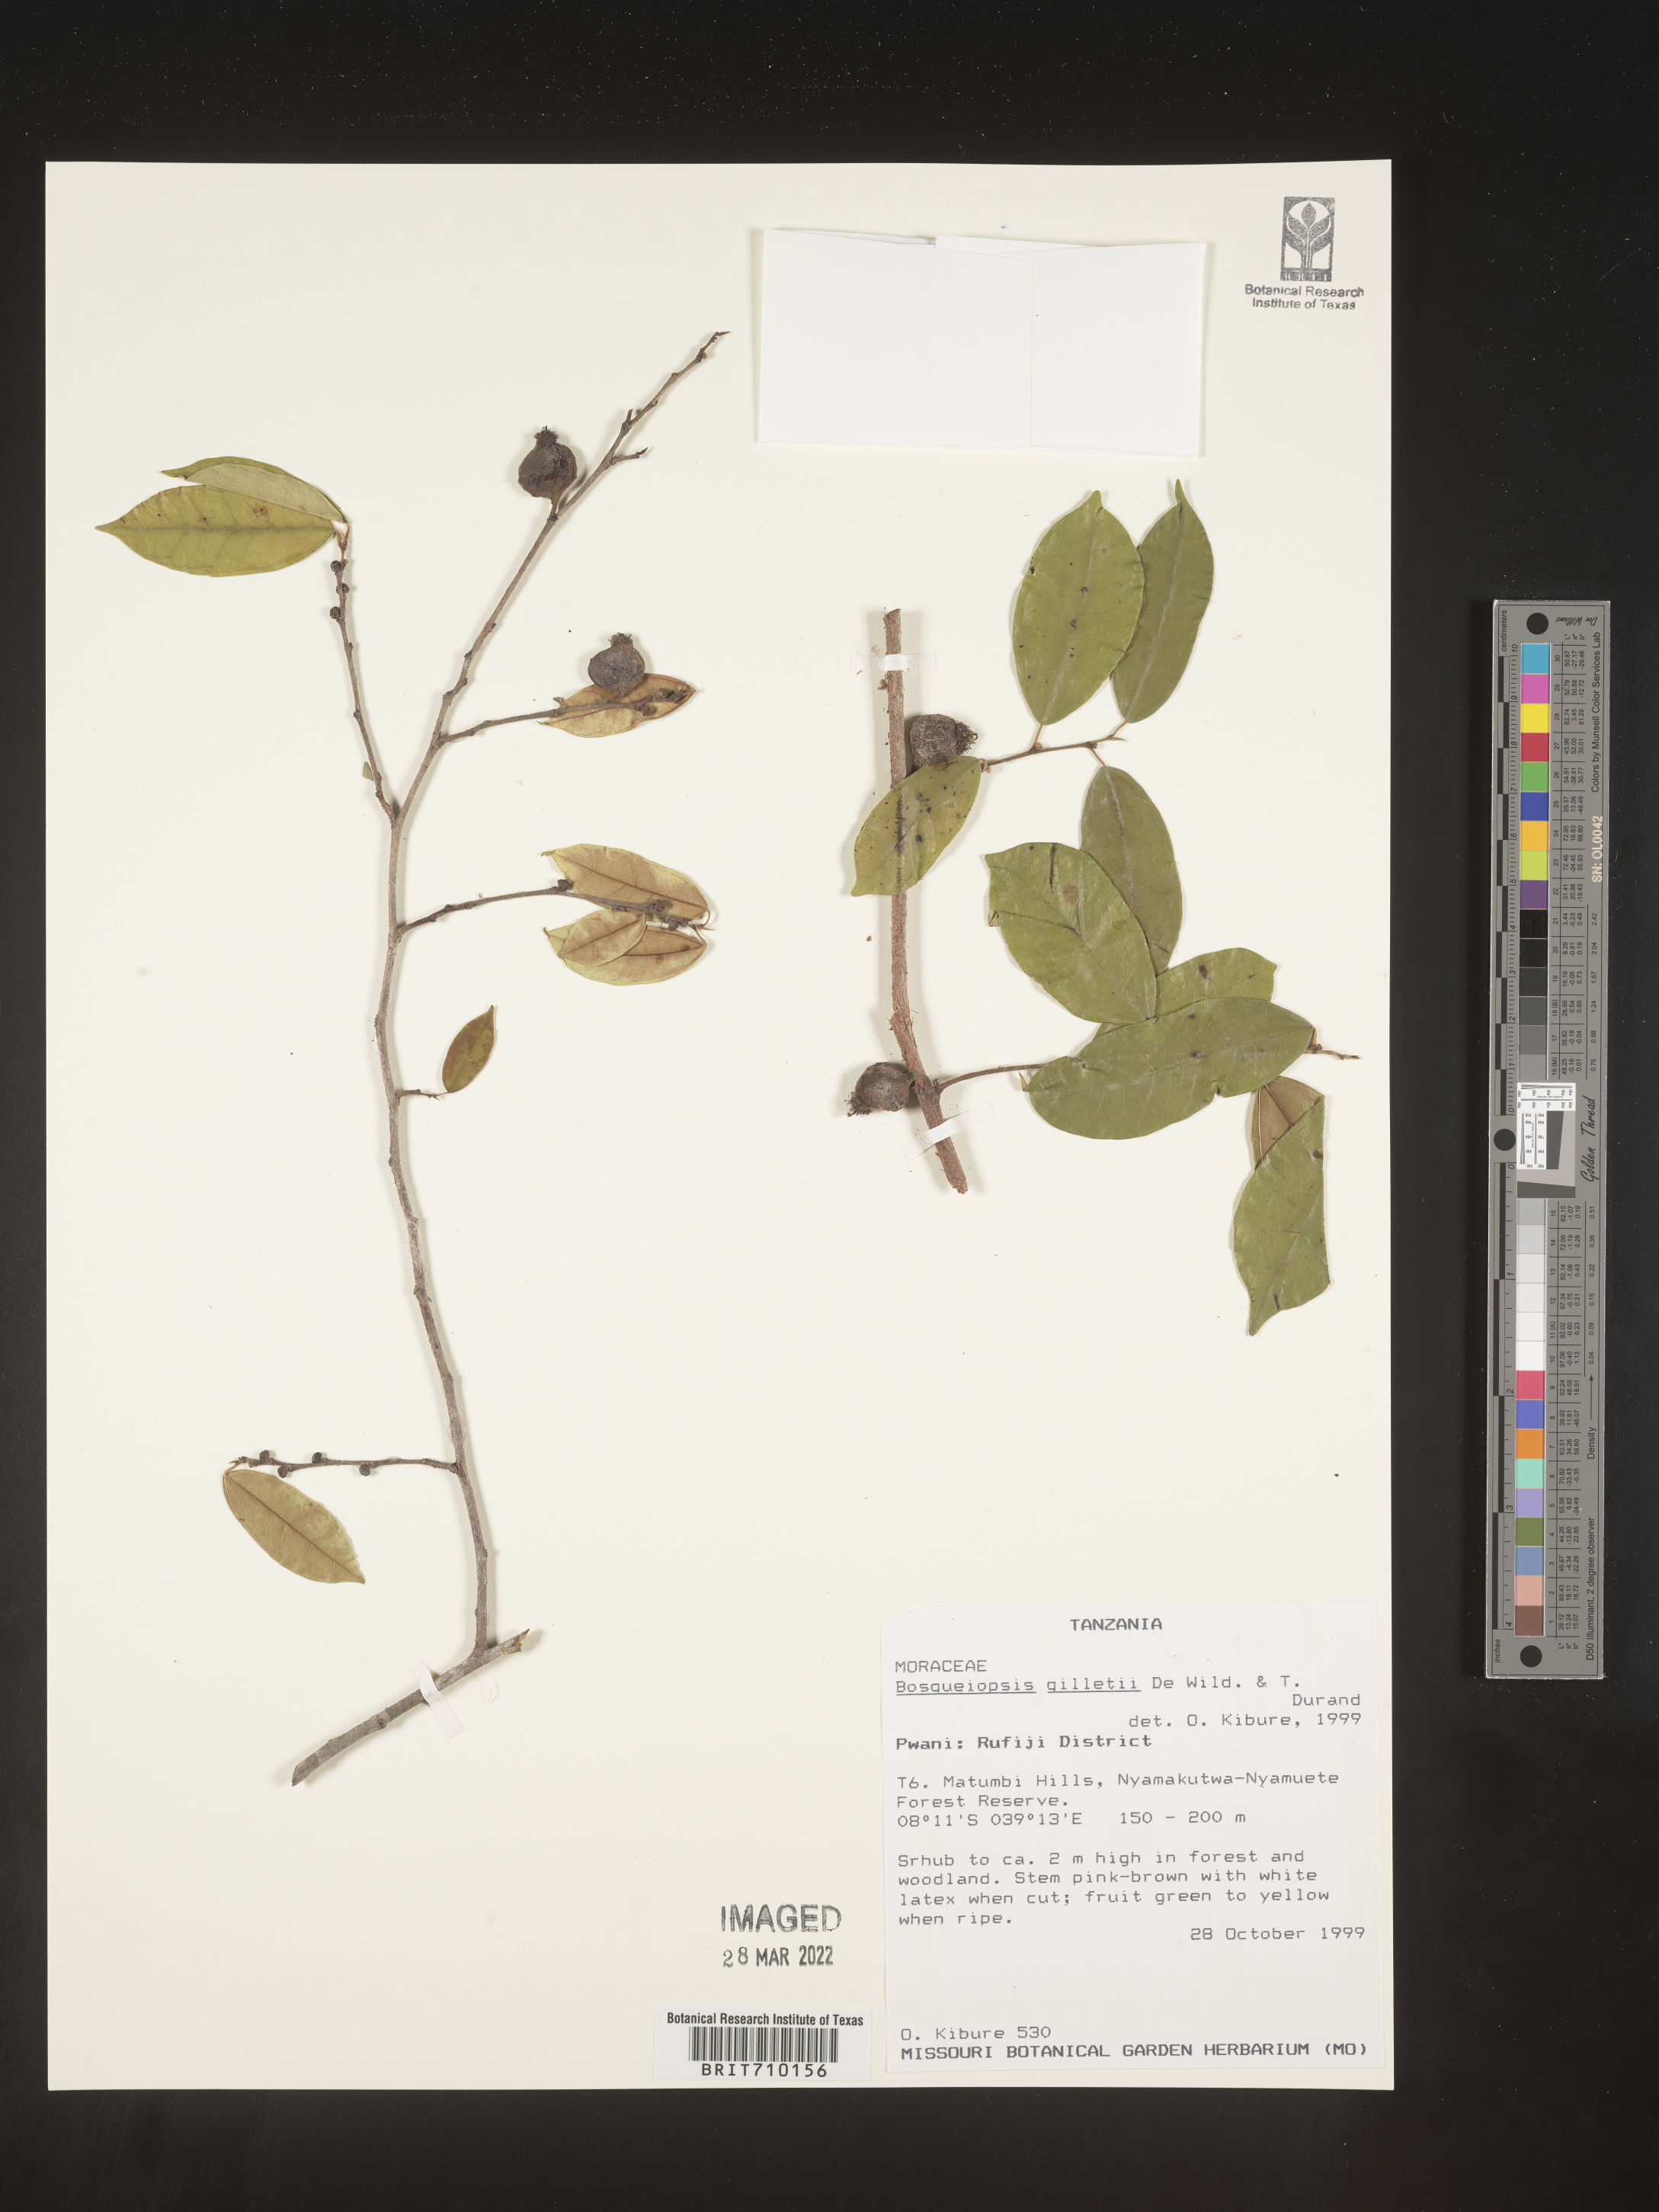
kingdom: Plantae
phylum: Tracheophyta
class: Magnoliopsida
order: Rosales
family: Moraceae
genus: Bosqueiopsis
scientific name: Bosqueiopsis
